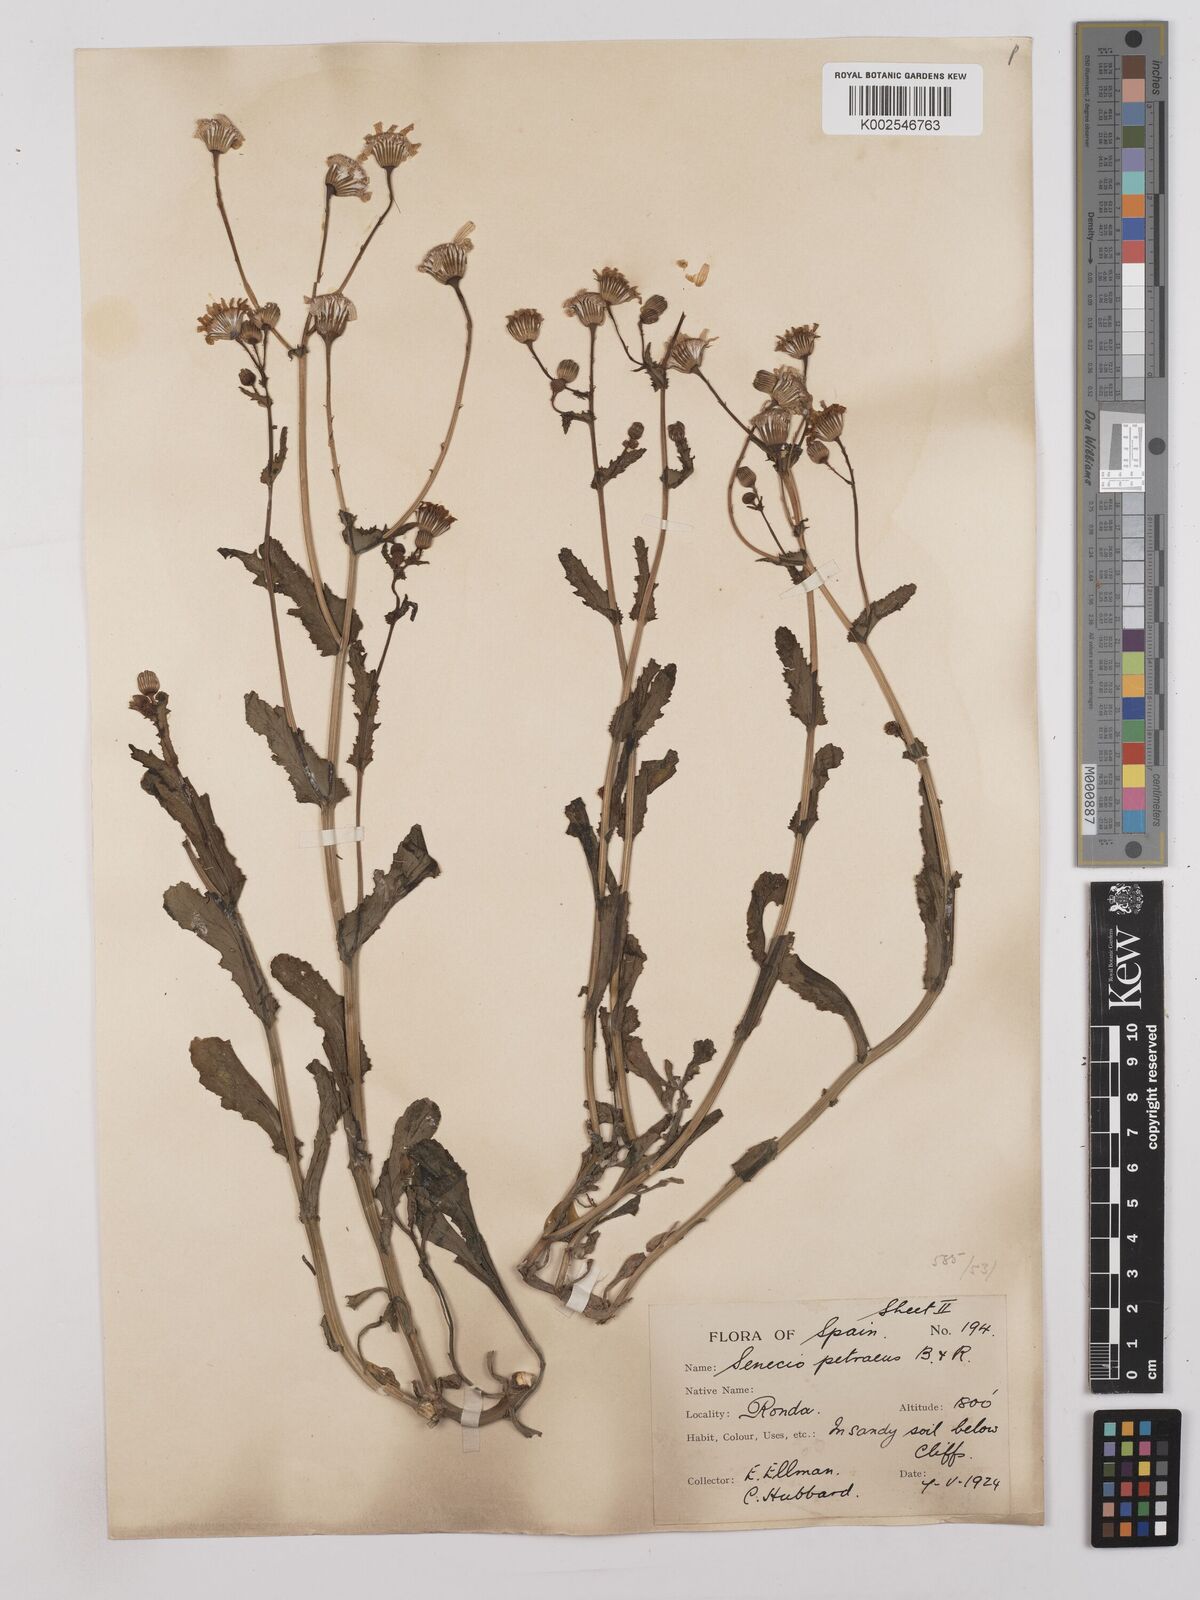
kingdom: Plantae
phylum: Tracheophyta
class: Magnoliopsida
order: Asterales
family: Asteraceae
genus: Kleinia
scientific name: Kleinia petraea
